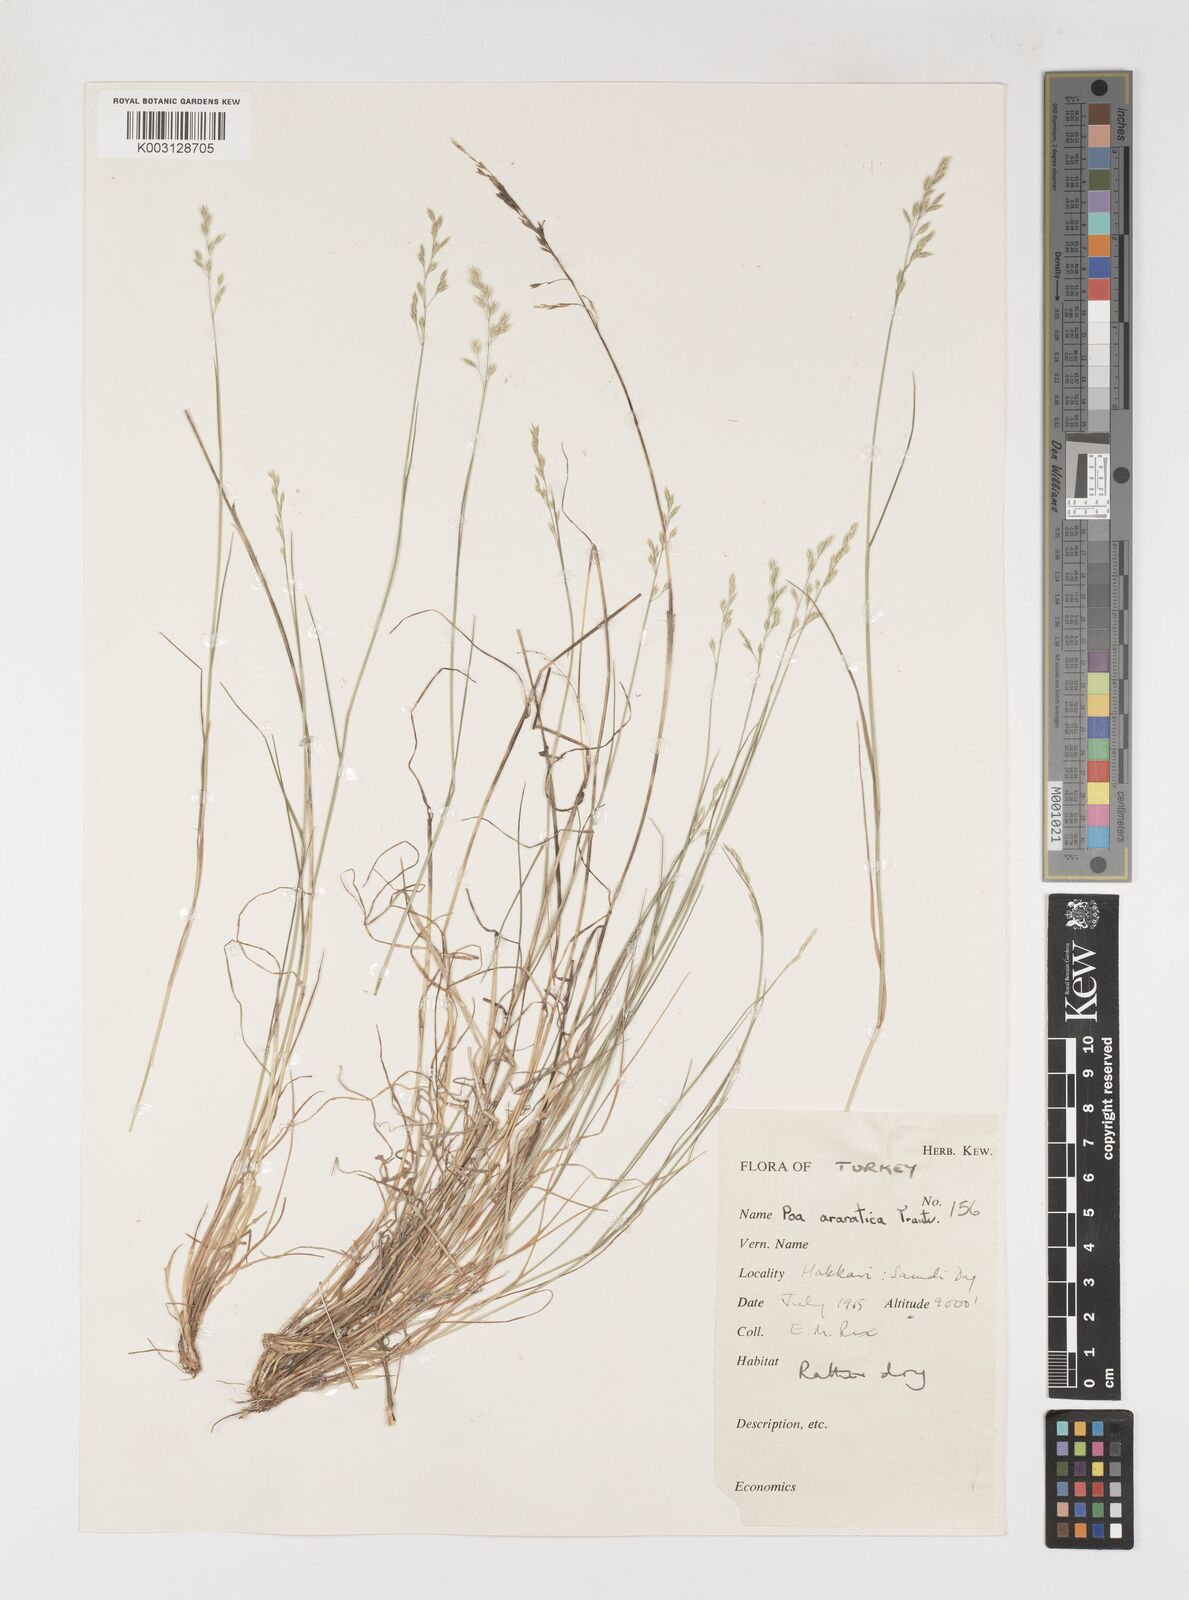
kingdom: Plantae
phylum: Tracheophyta
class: Liliopsida
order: Poales
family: Poaceae
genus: Poa
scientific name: Poa araratica
